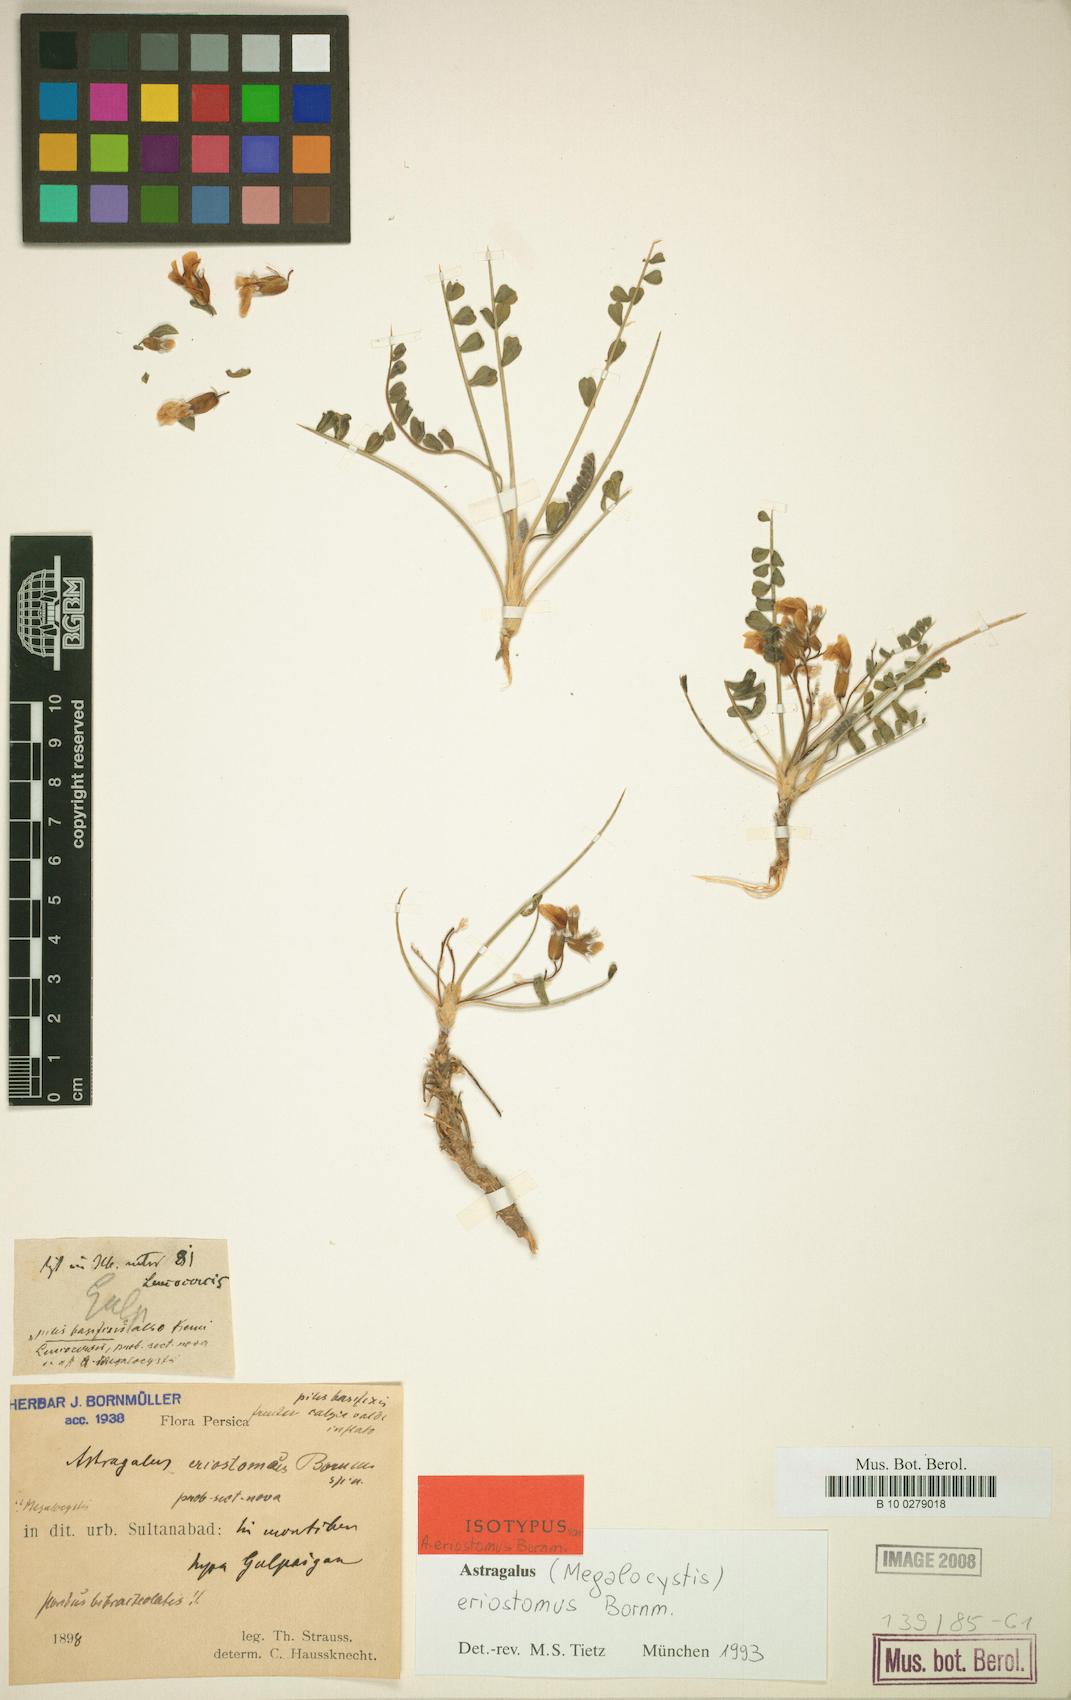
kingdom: Plantae
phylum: Tracheophyta
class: Magnoliopsida
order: Fabales
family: Fabaceae
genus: Astragalus
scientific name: Astragalus eriostomus
